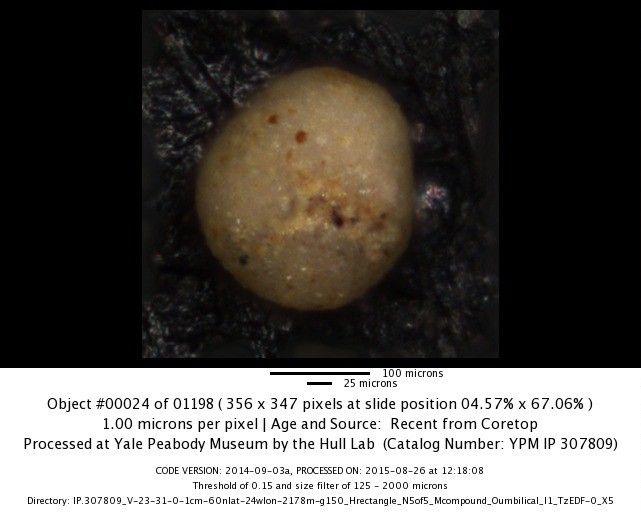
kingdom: Chromista
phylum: Foraminifera
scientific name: Foraminifera
